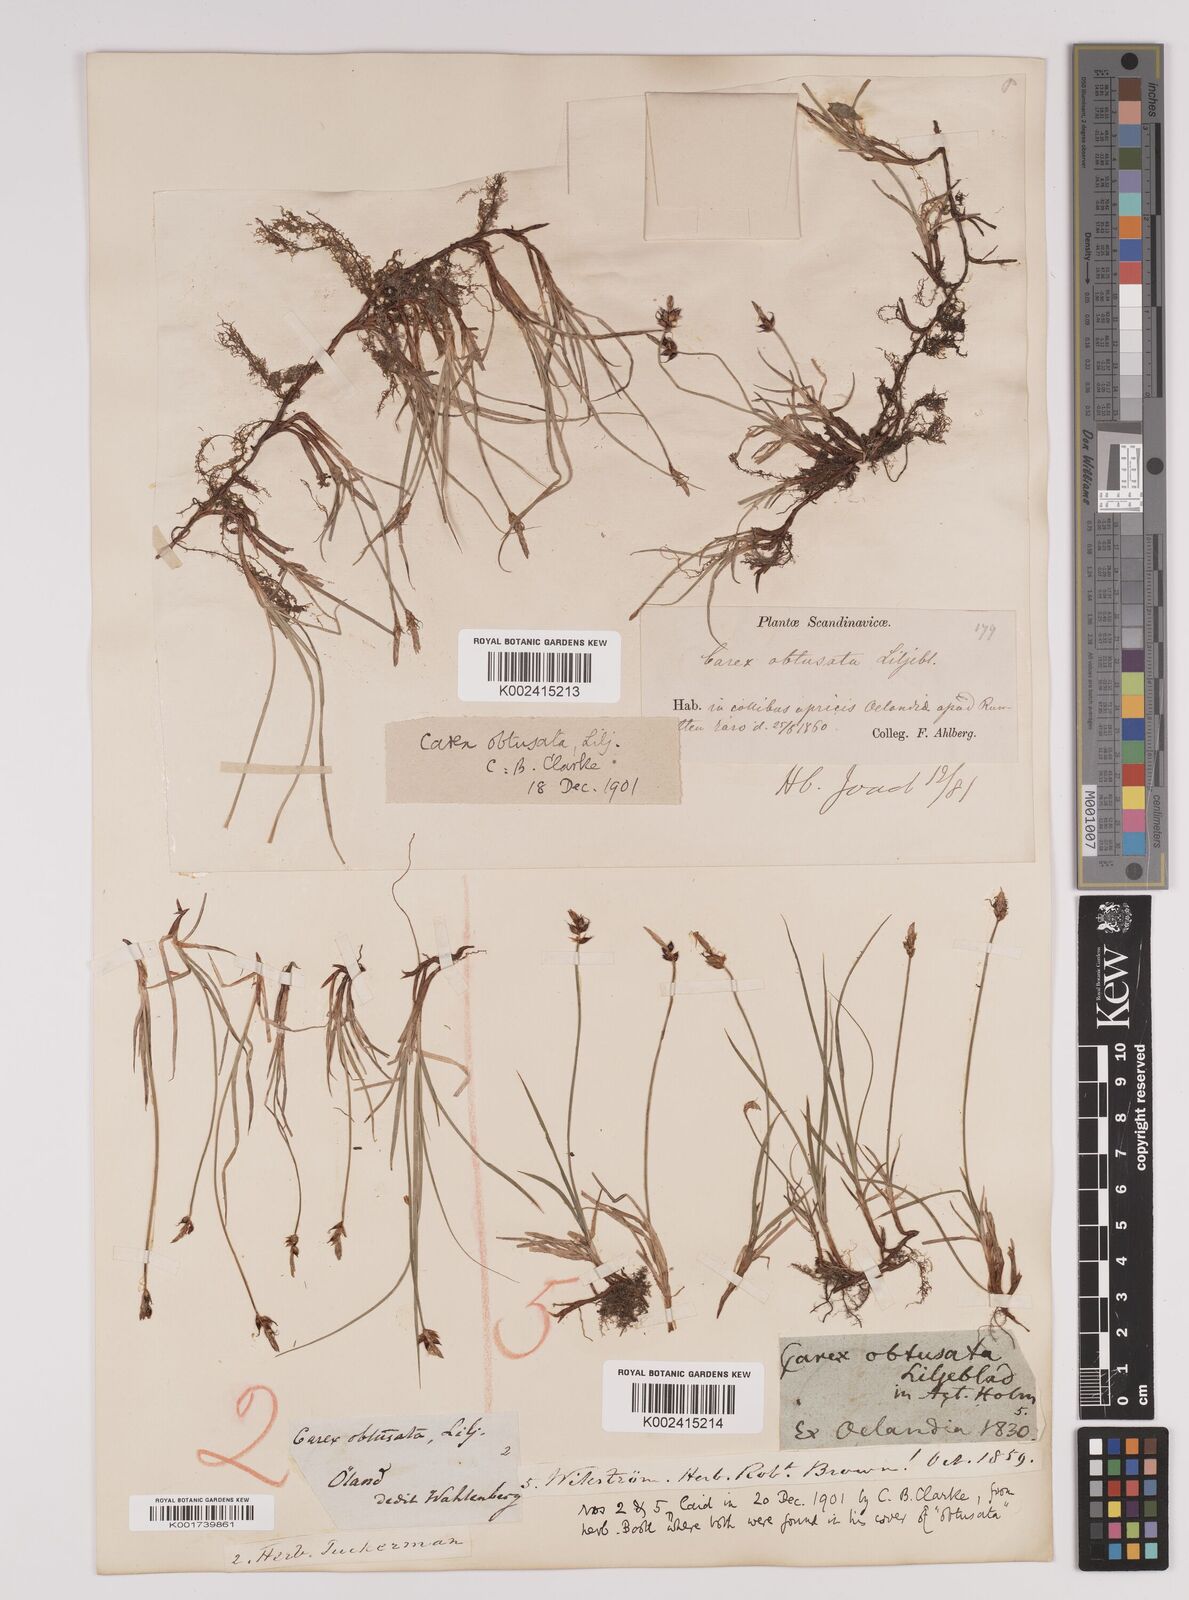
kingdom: Plantae
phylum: Tracheophyta
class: Liliopsida
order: Poales
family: Cyperaceae
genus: Carex
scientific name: Carex obtusata
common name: Blunt sedge
